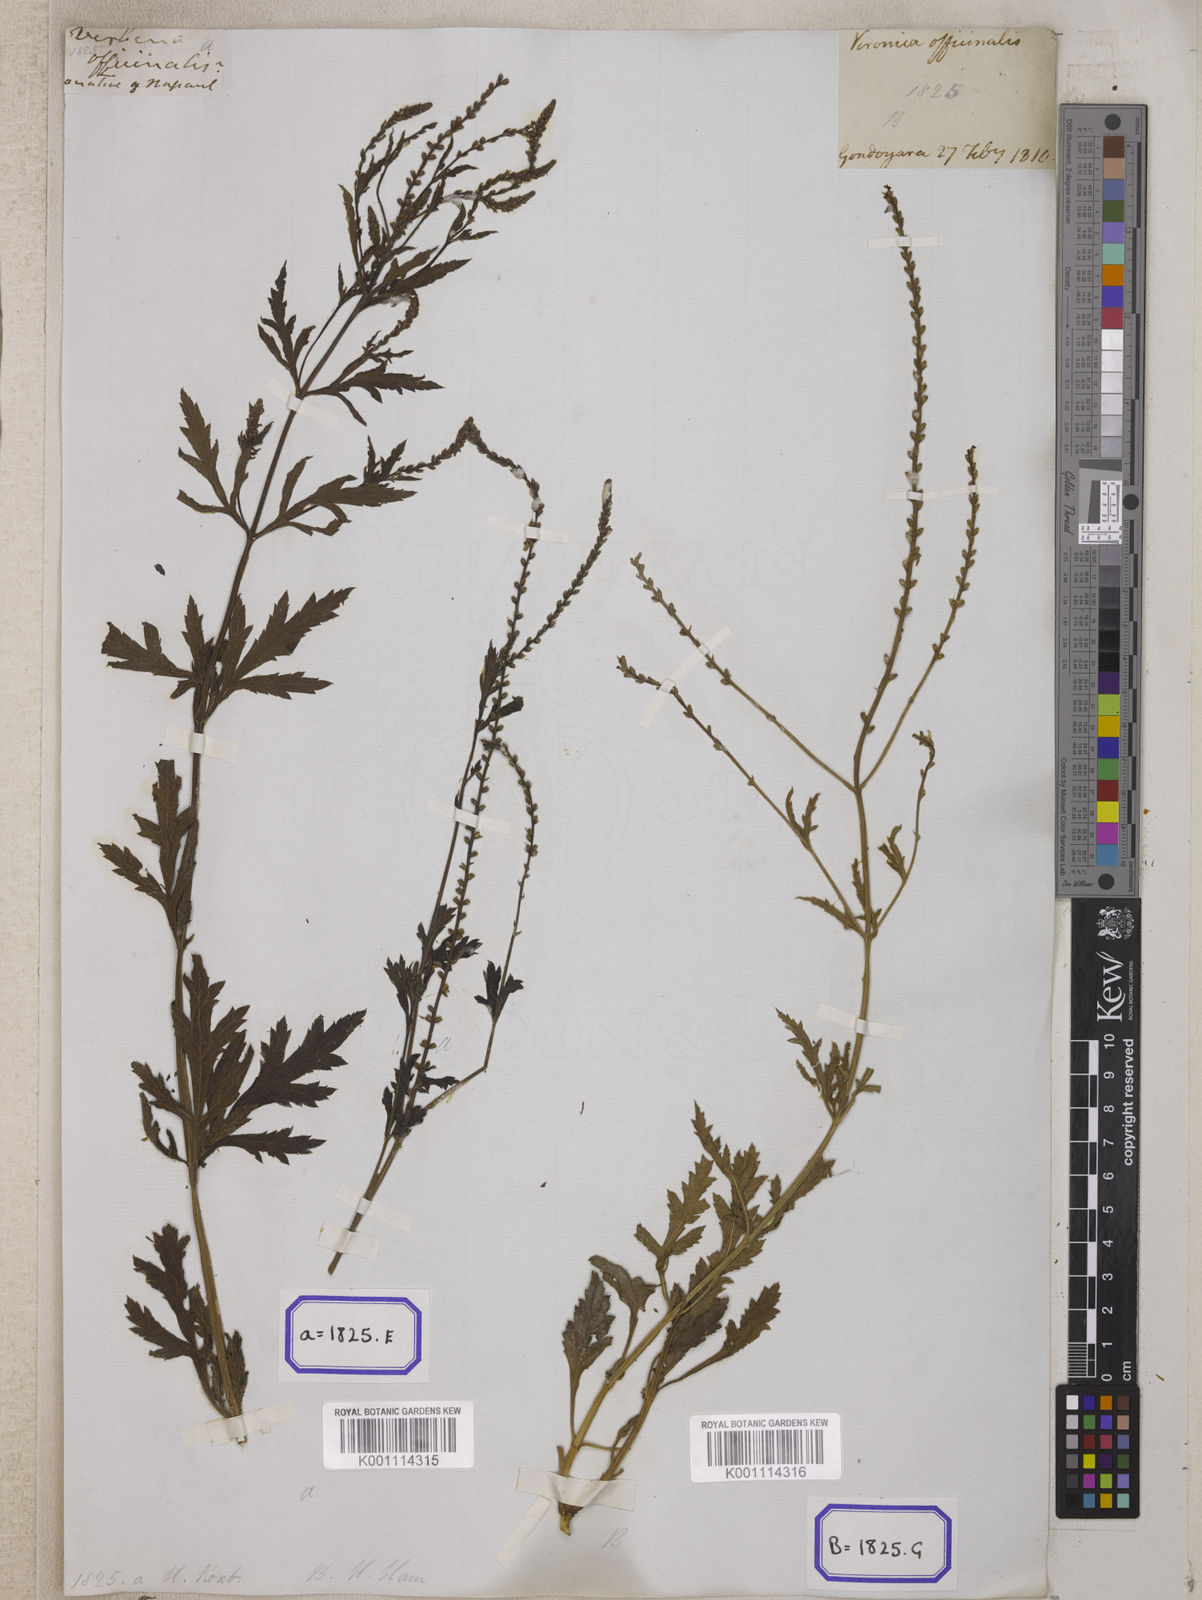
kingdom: Plantae
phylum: Tracheophyta
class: Magnoliopsida
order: Lamiales
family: Verbenaceae
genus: Verbena
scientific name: Verbena officinalis
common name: Vervain
